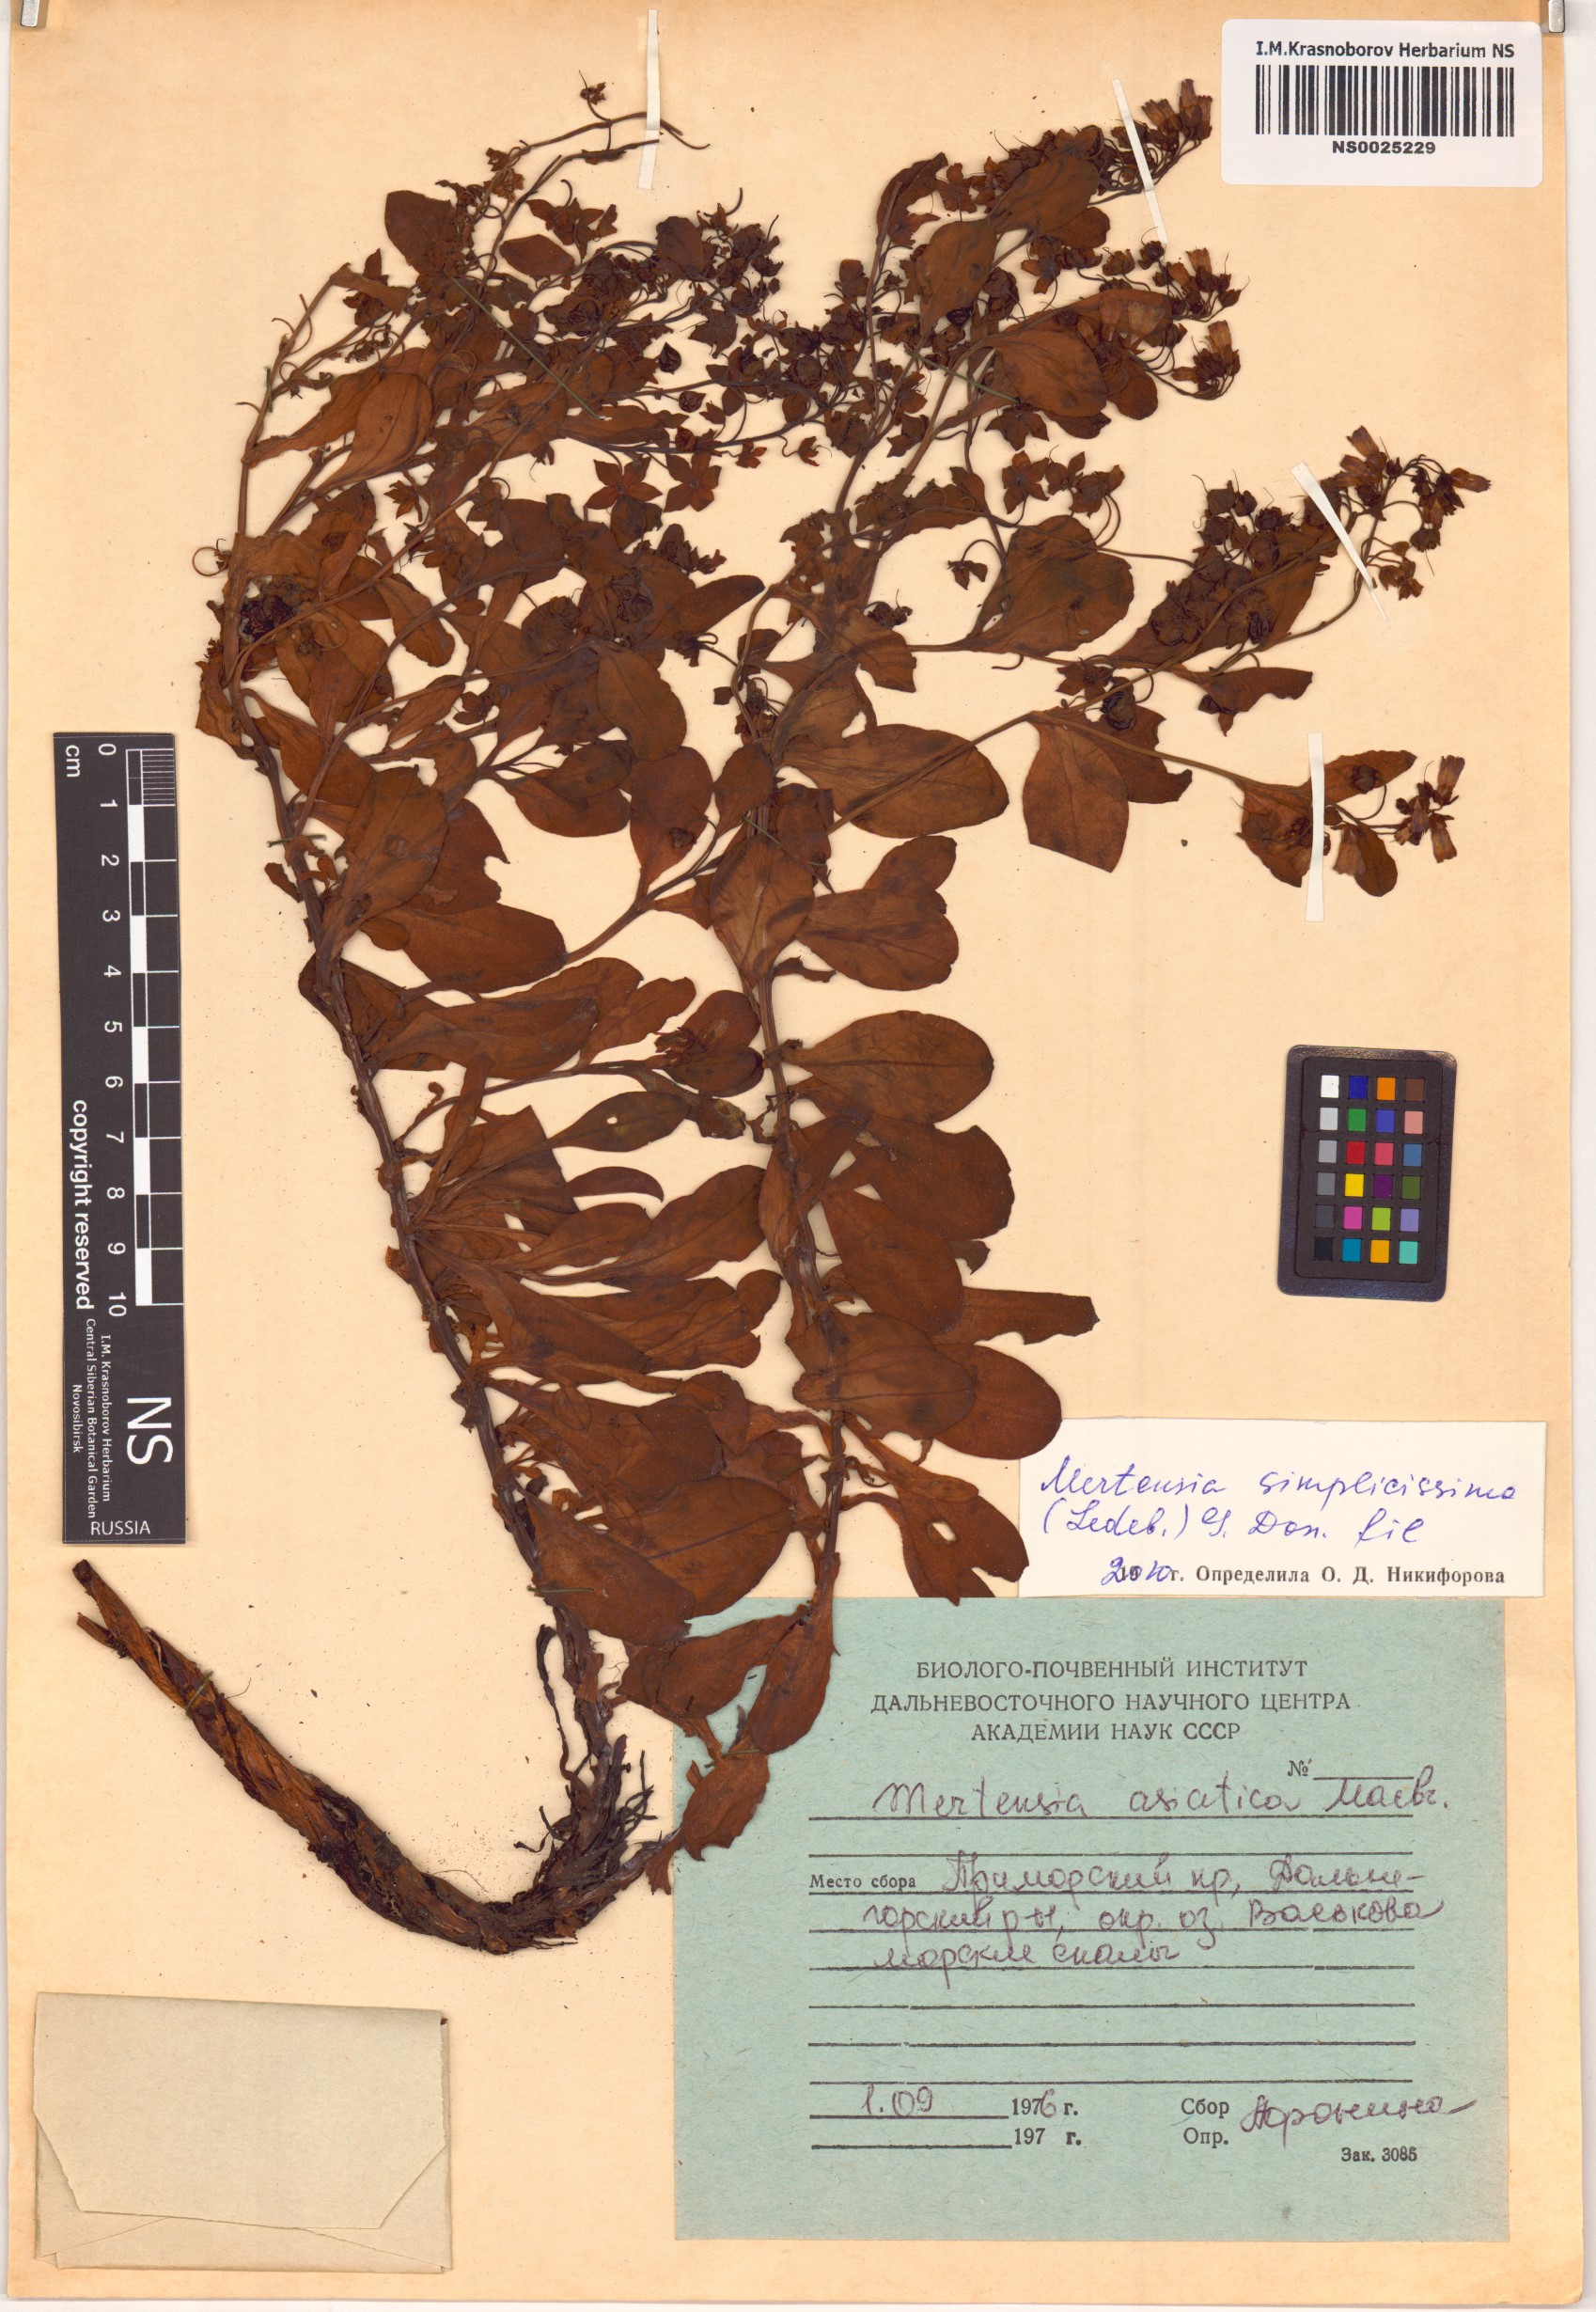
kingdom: Plantae
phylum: Tracheophyta
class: Magnoliopsida
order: Boraginales
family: Boraginaceae
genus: Mertensia
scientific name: Mertensia simplicissima
